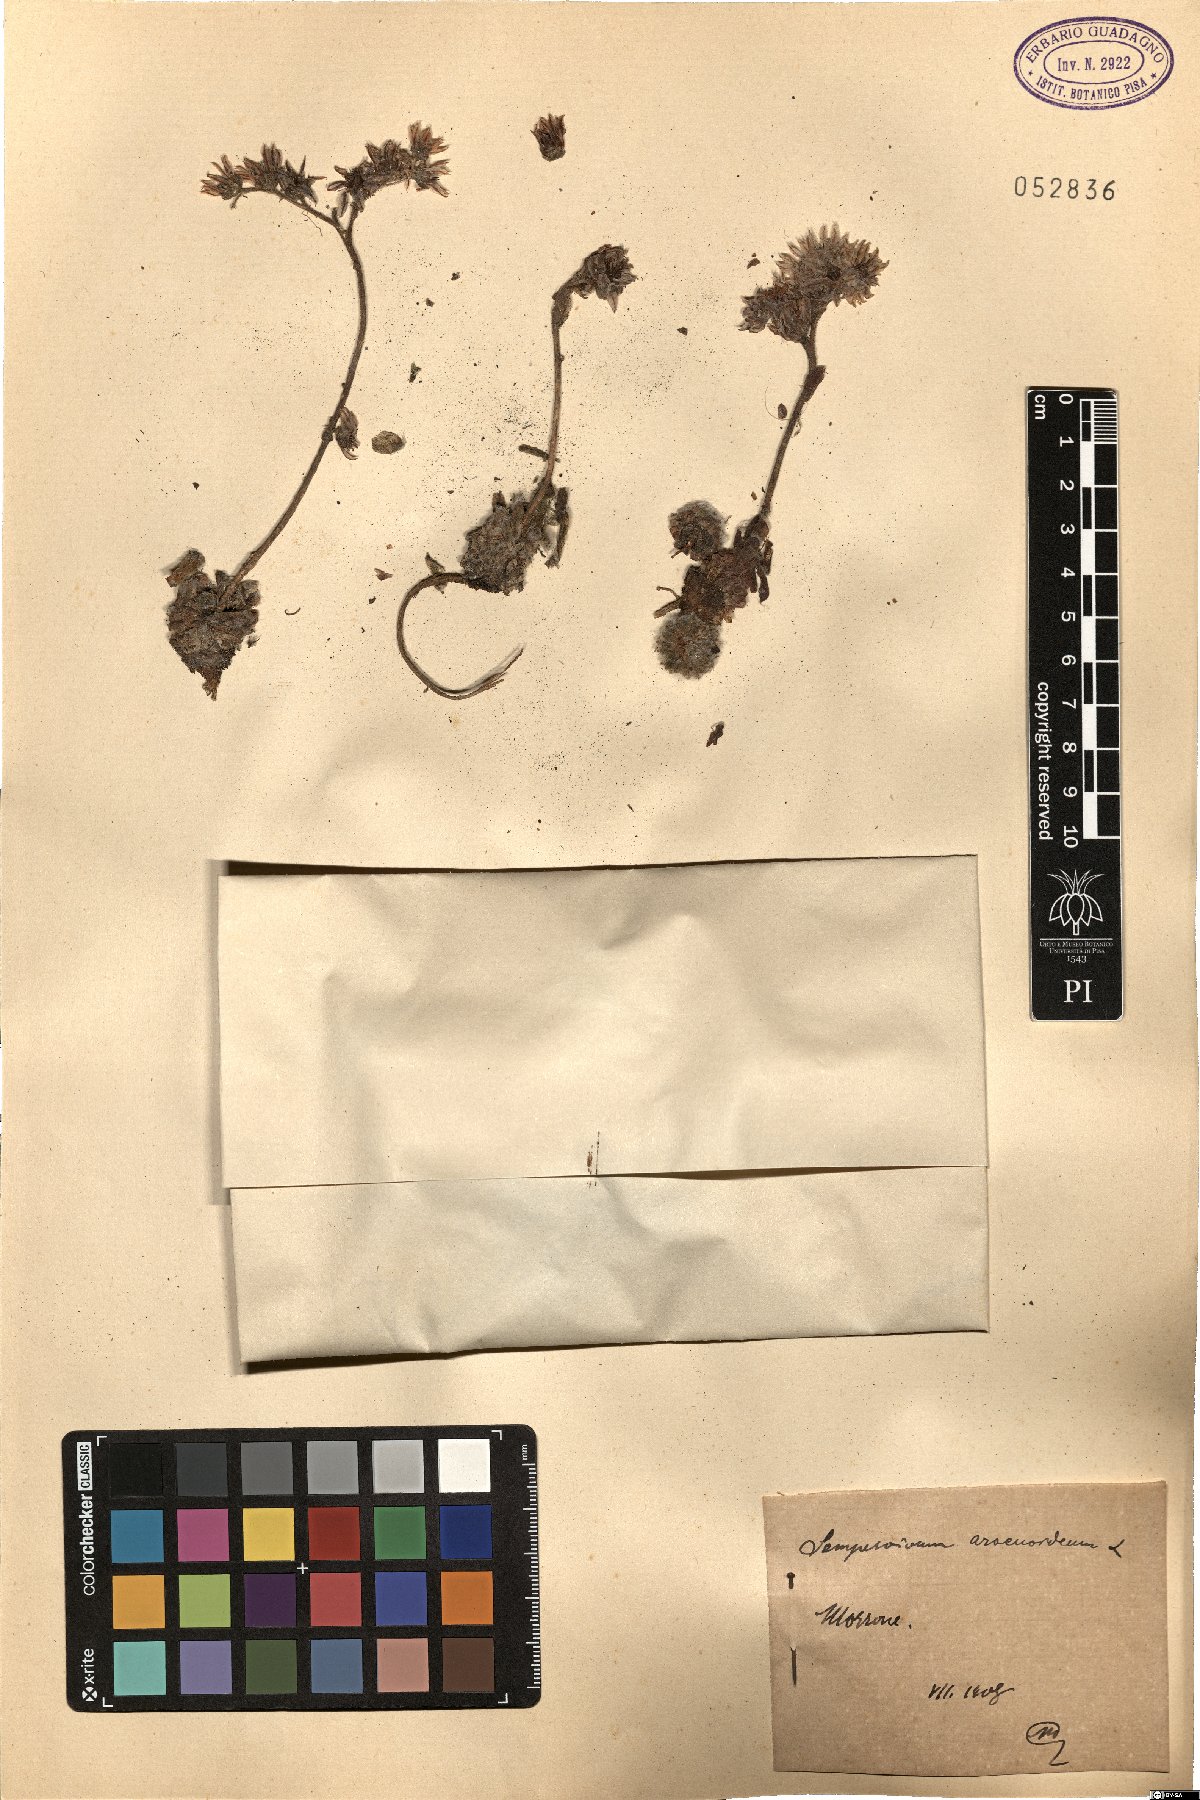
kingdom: Plantae
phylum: Tracheophyta
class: Magnoliopsida
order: Saxifragales
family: Crassulaceae
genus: Sempervivum
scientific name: Sempervivum arachnoideum
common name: Cobweb house-leek
